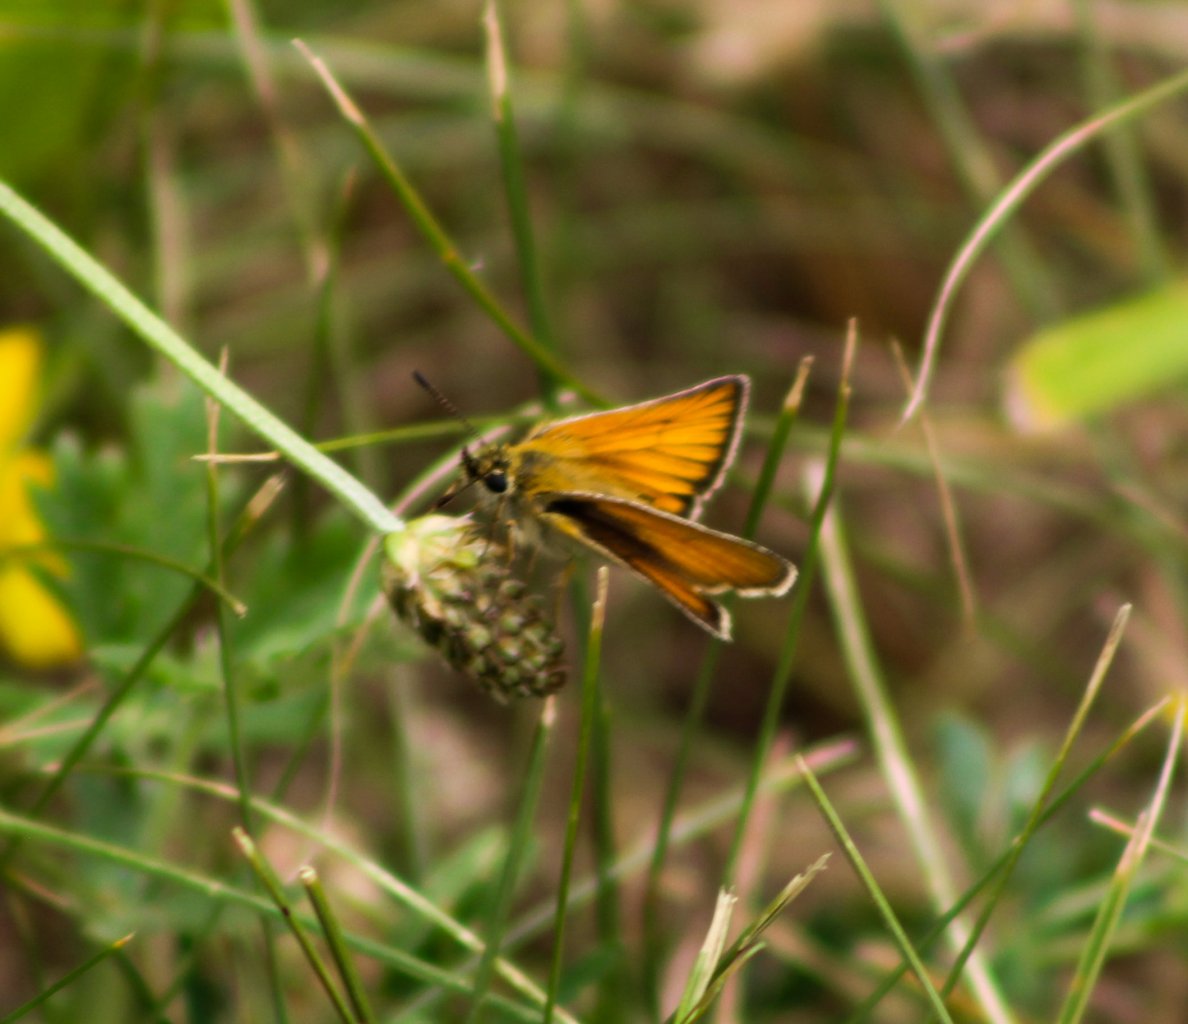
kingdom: Animalia
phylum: Arthropoda
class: Insecta
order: Lepidoptera
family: Hesperiidae
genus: Thymelicus
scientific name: Thymelicus lineola
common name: European Skipper
